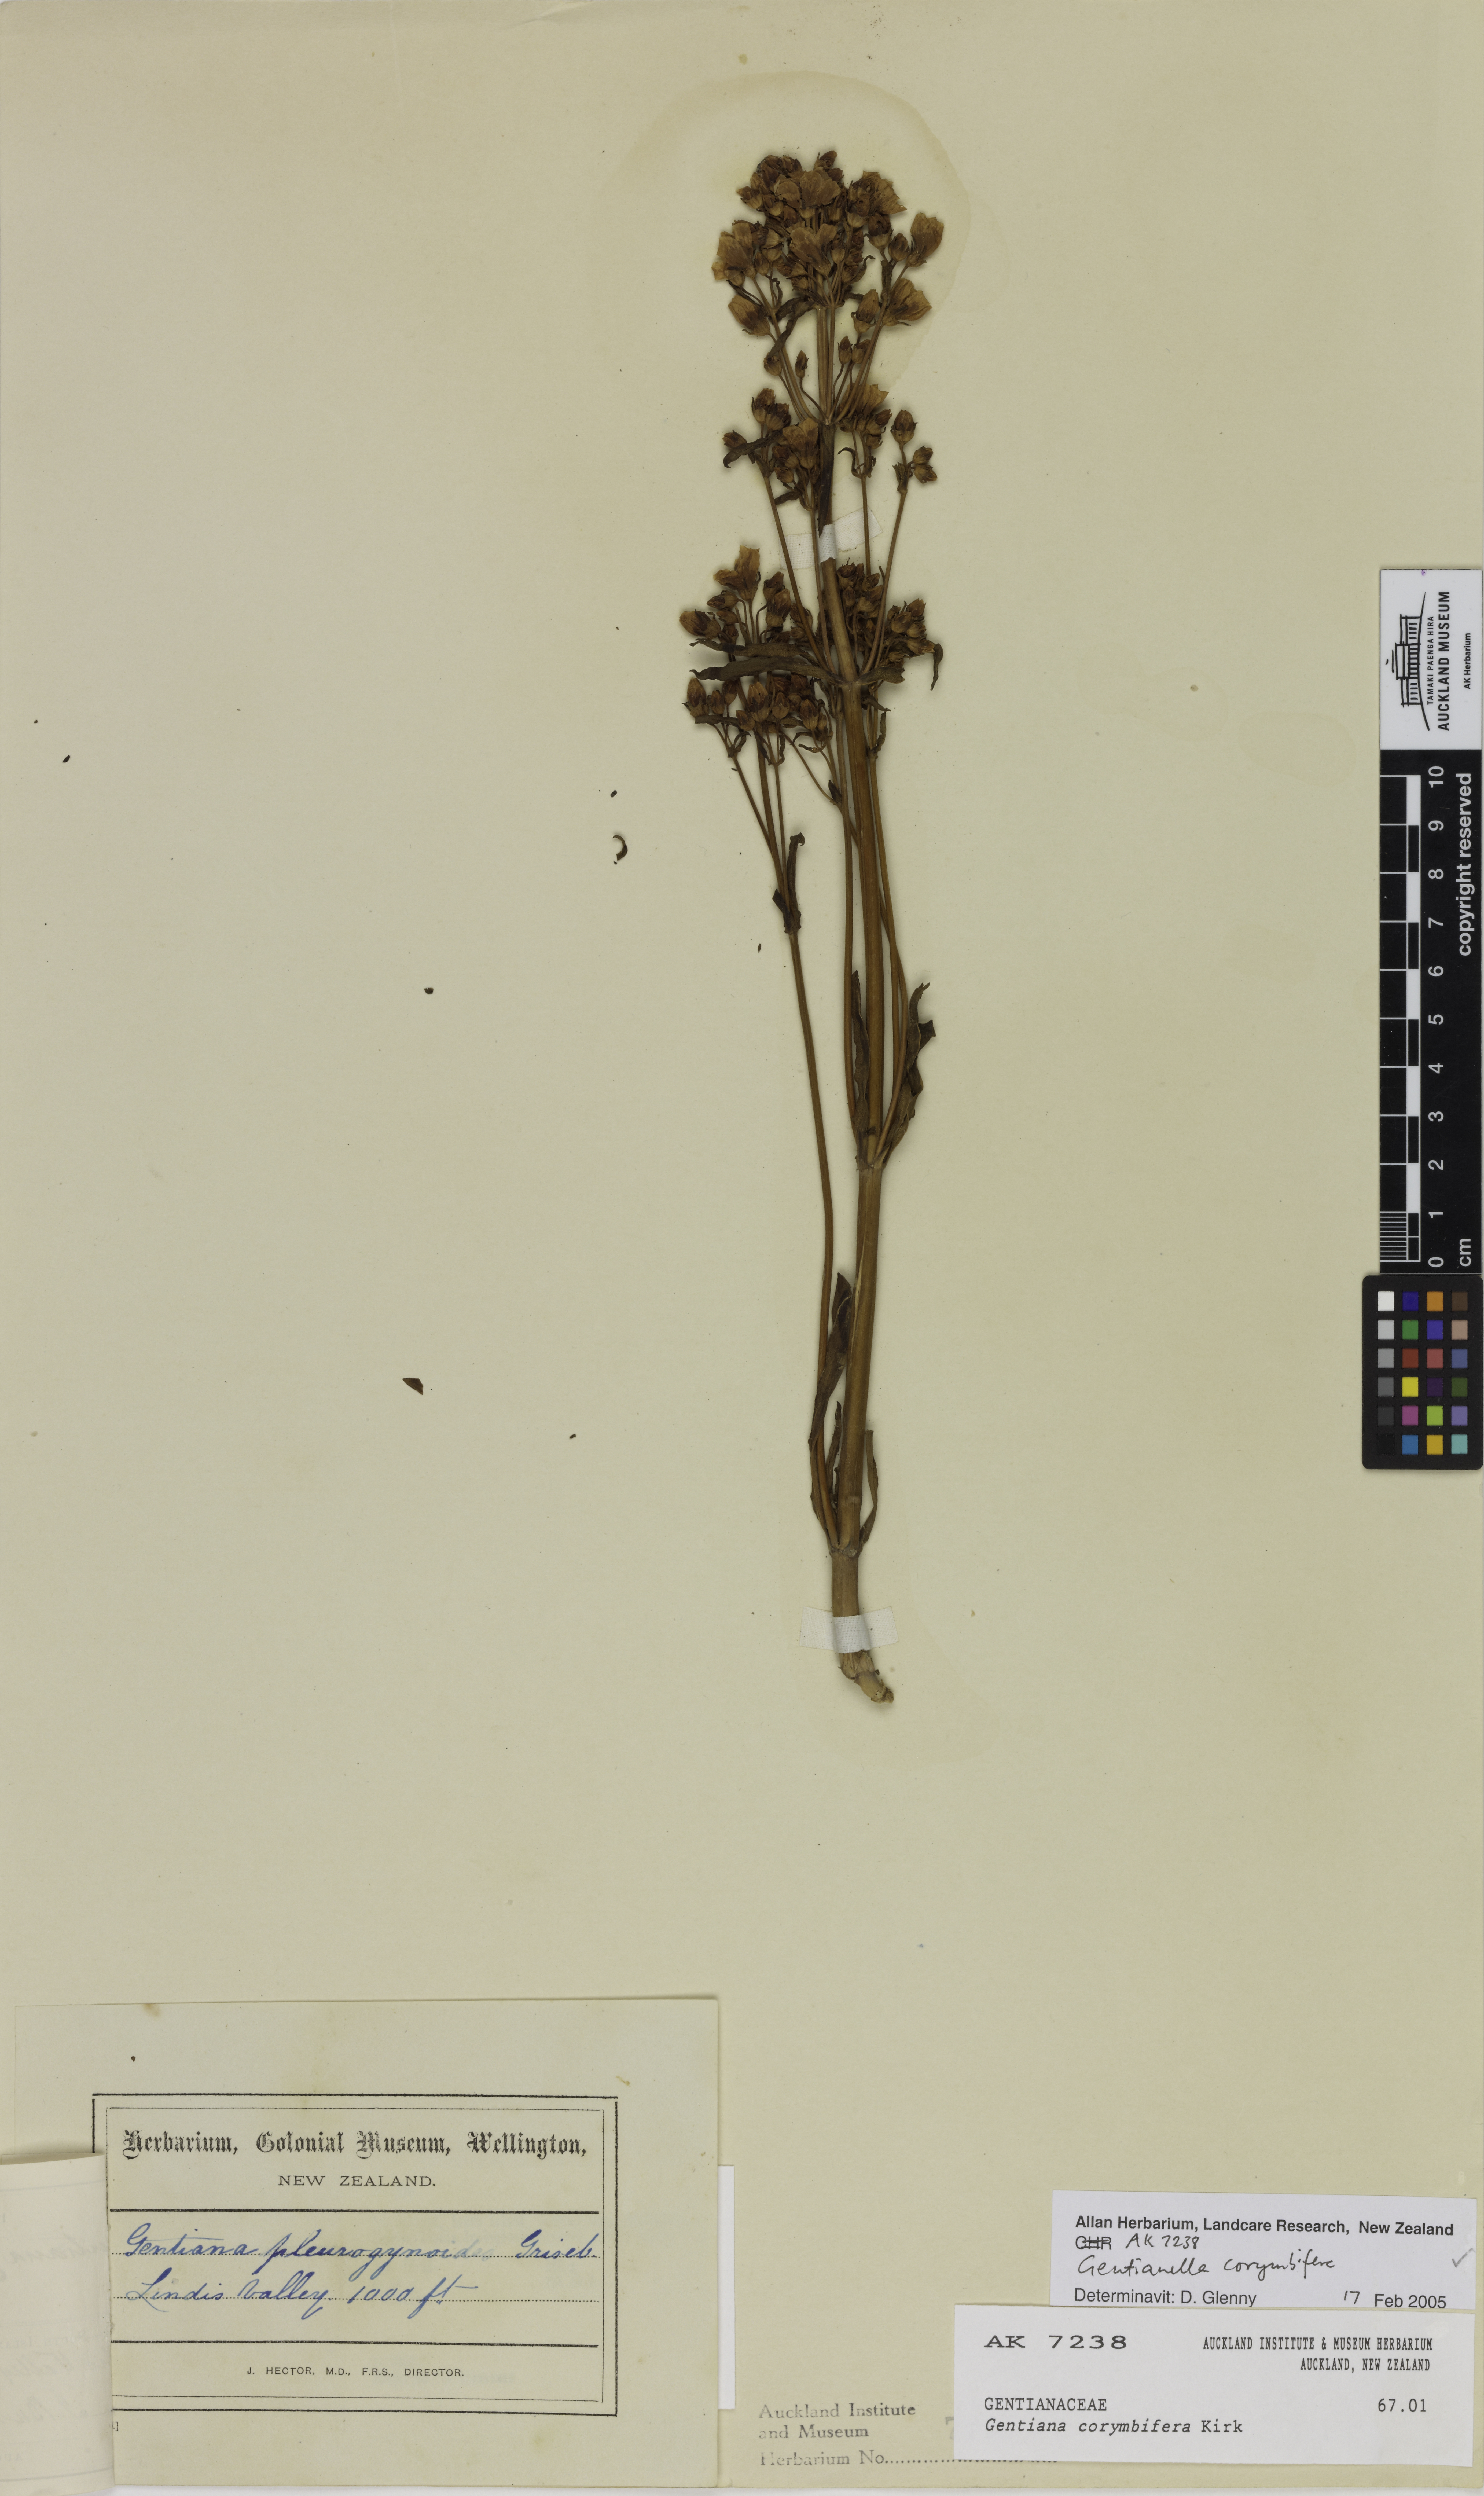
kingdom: Plantae
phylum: Tracheophyta
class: Magnoliopsida
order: Gentianales
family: Gentianaceae
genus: Gentianella
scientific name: Gentianella corymbifera
